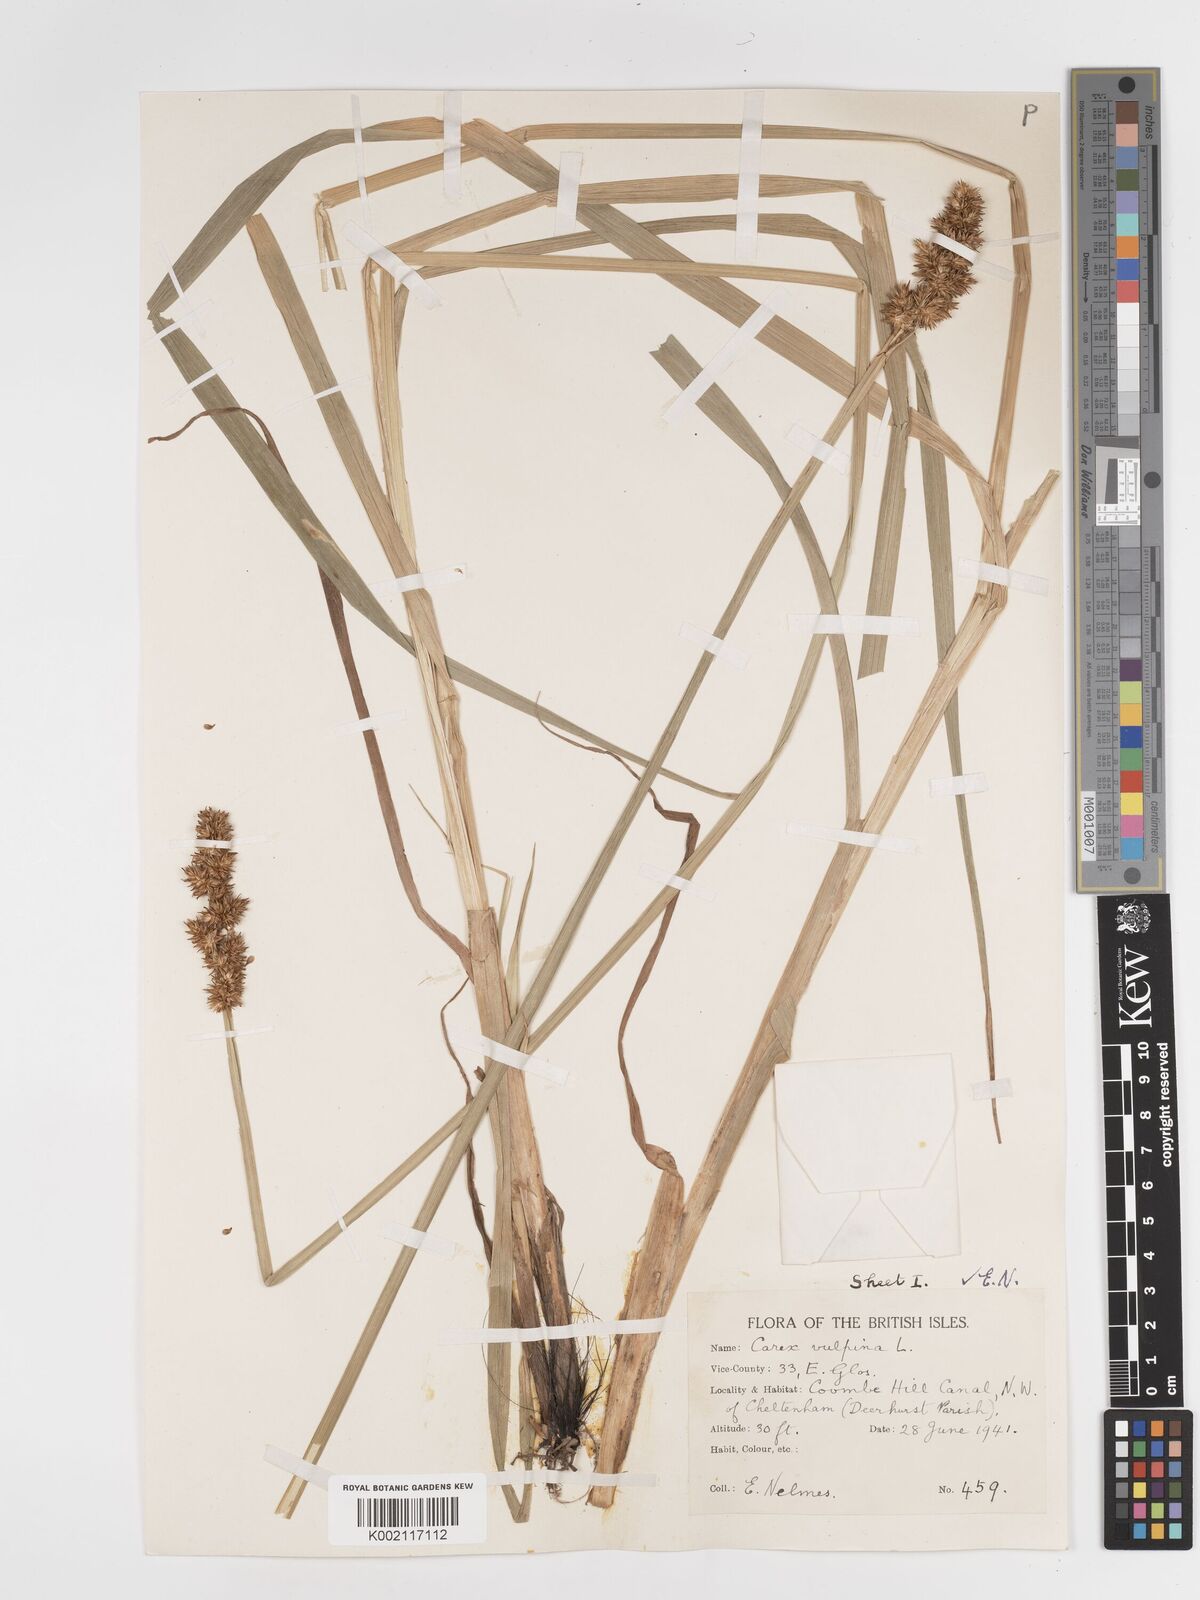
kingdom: Plantae
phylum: Tracheophyta
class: Liliopsida
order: Poales
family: Cyperaceae
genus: Carex
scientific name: Carex vulpina
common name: True fox-sedge
